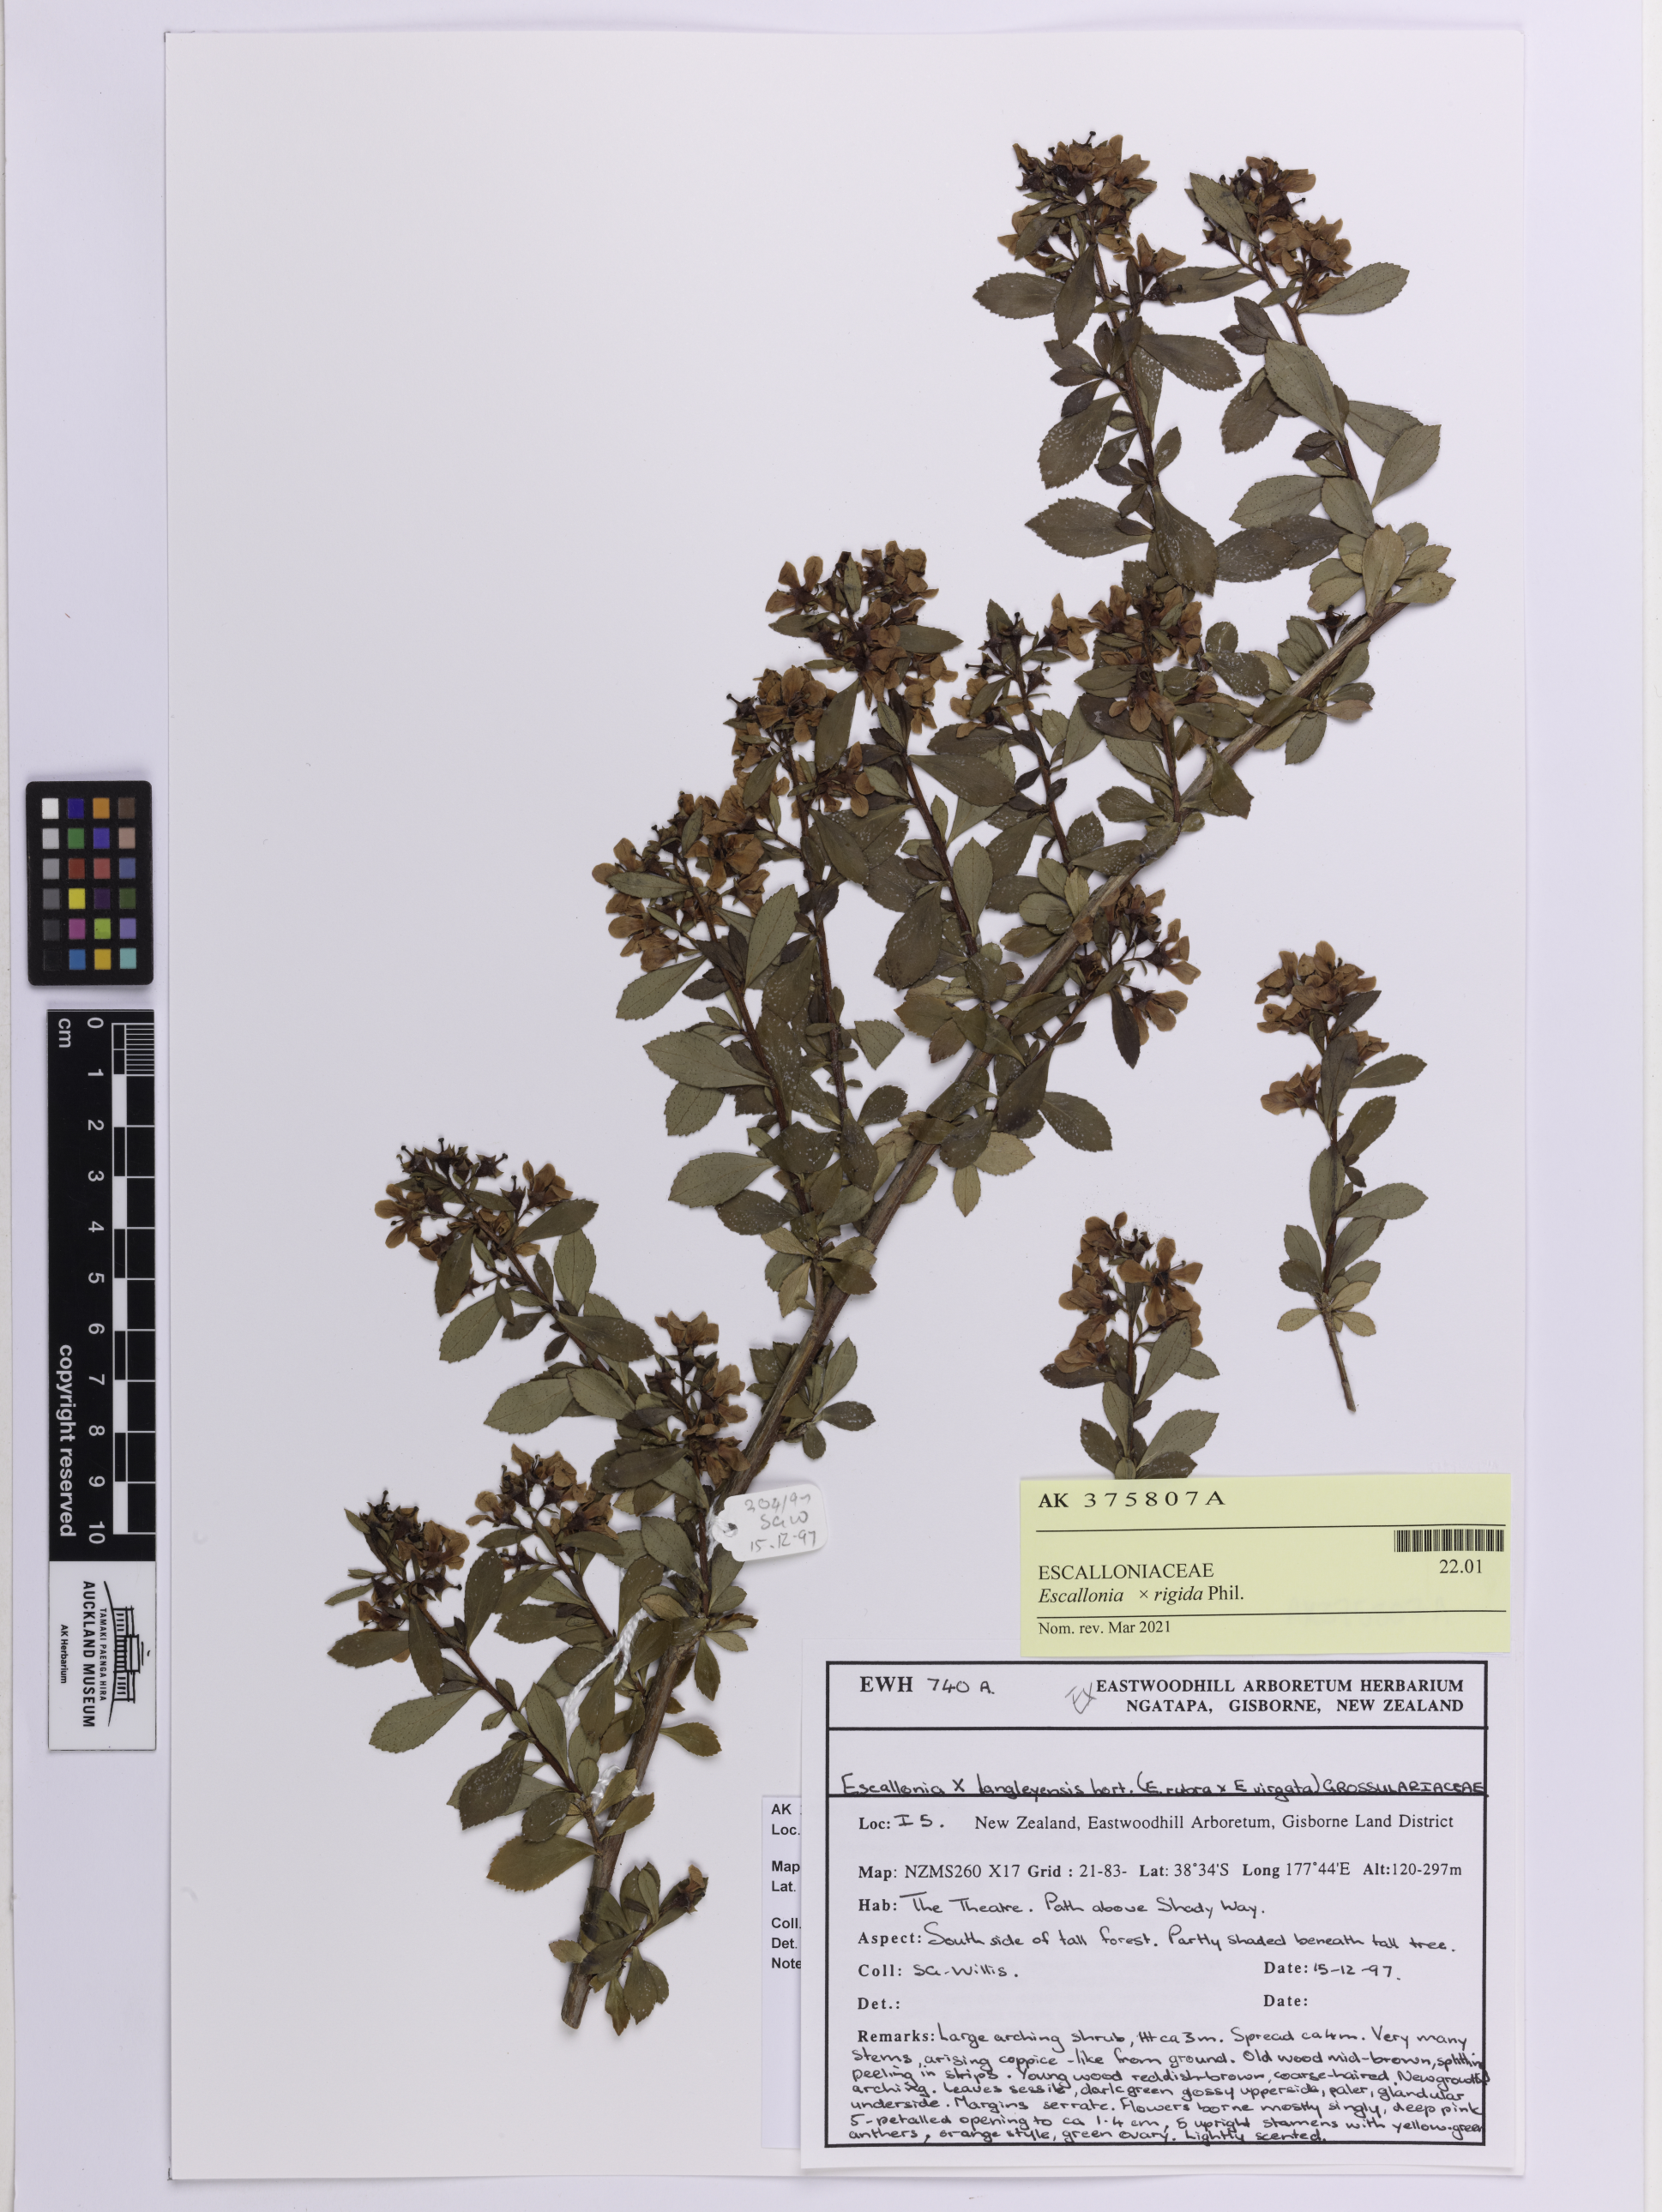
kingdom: Plantae
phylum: Tracheophyta
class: Magnoliopsida
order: Escalloniales
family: Escalloniaceae
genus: Escallonia
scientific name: Escallonia rigida
